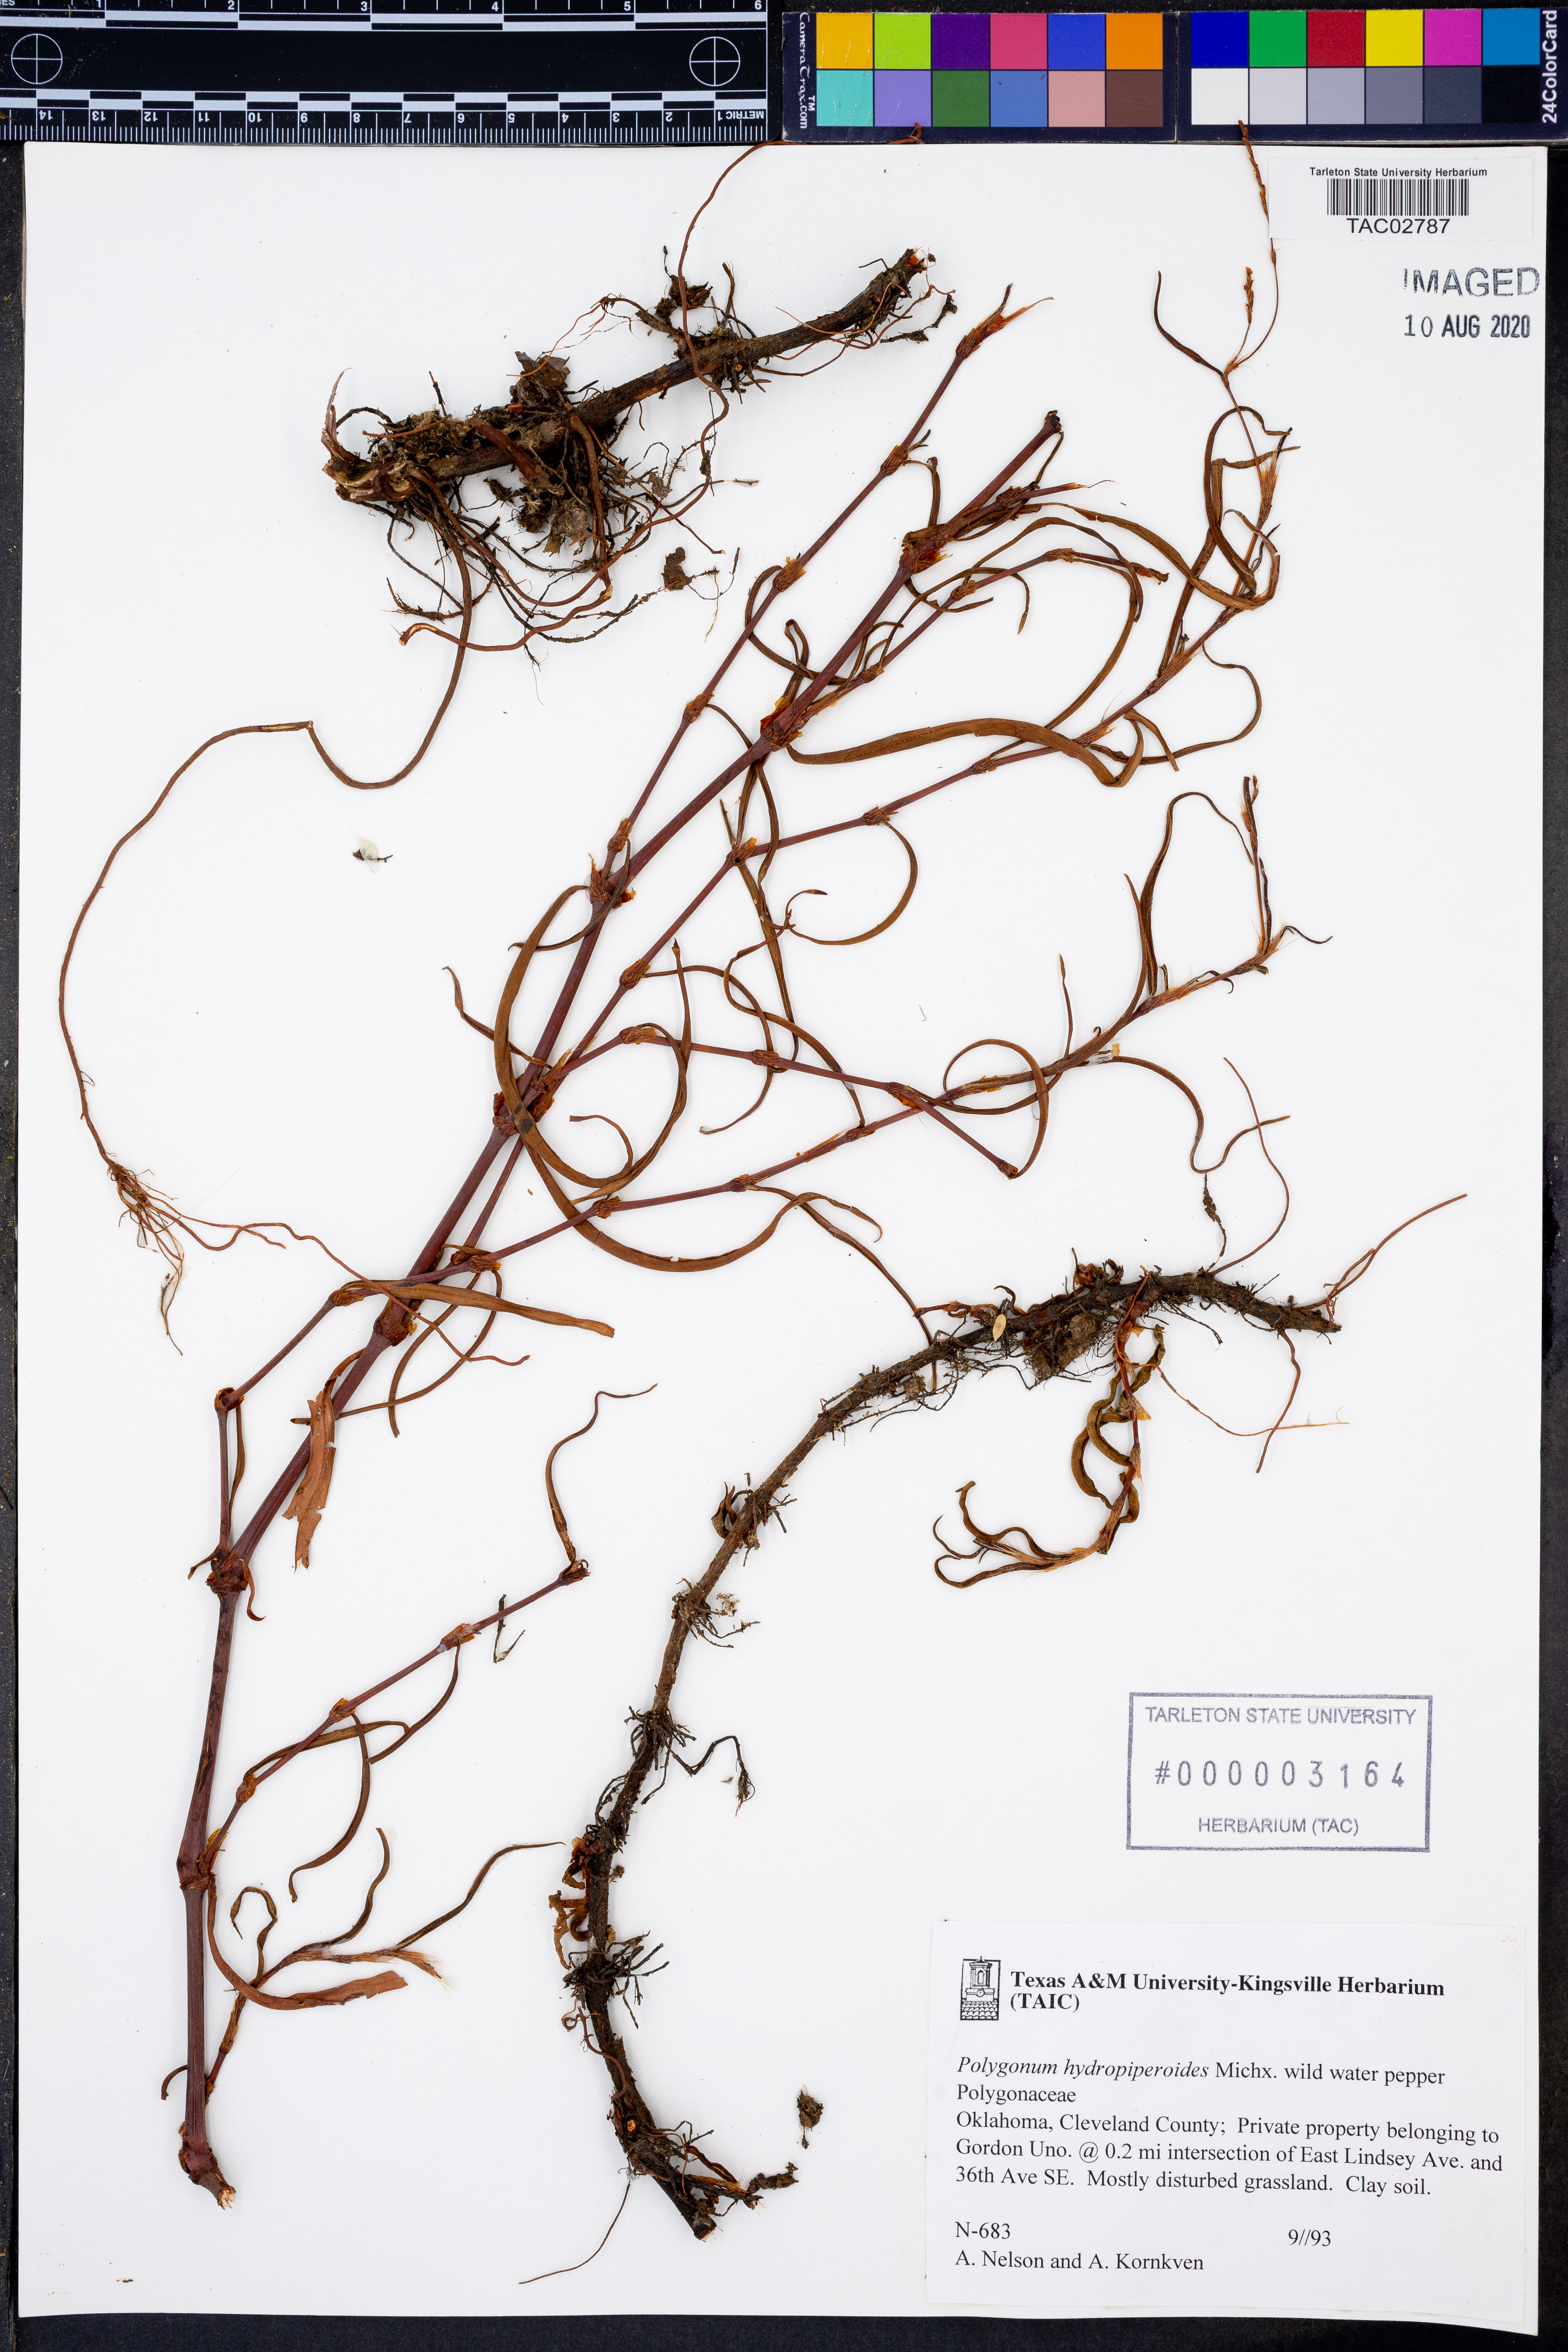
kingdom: Plantae
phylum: Tracheophyta
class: Magnoliopsida
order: Caryophyllales
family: Polygonaceae
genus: Persicaria
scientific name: Persicaria hydropiperoides
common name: Swamp smartweed
